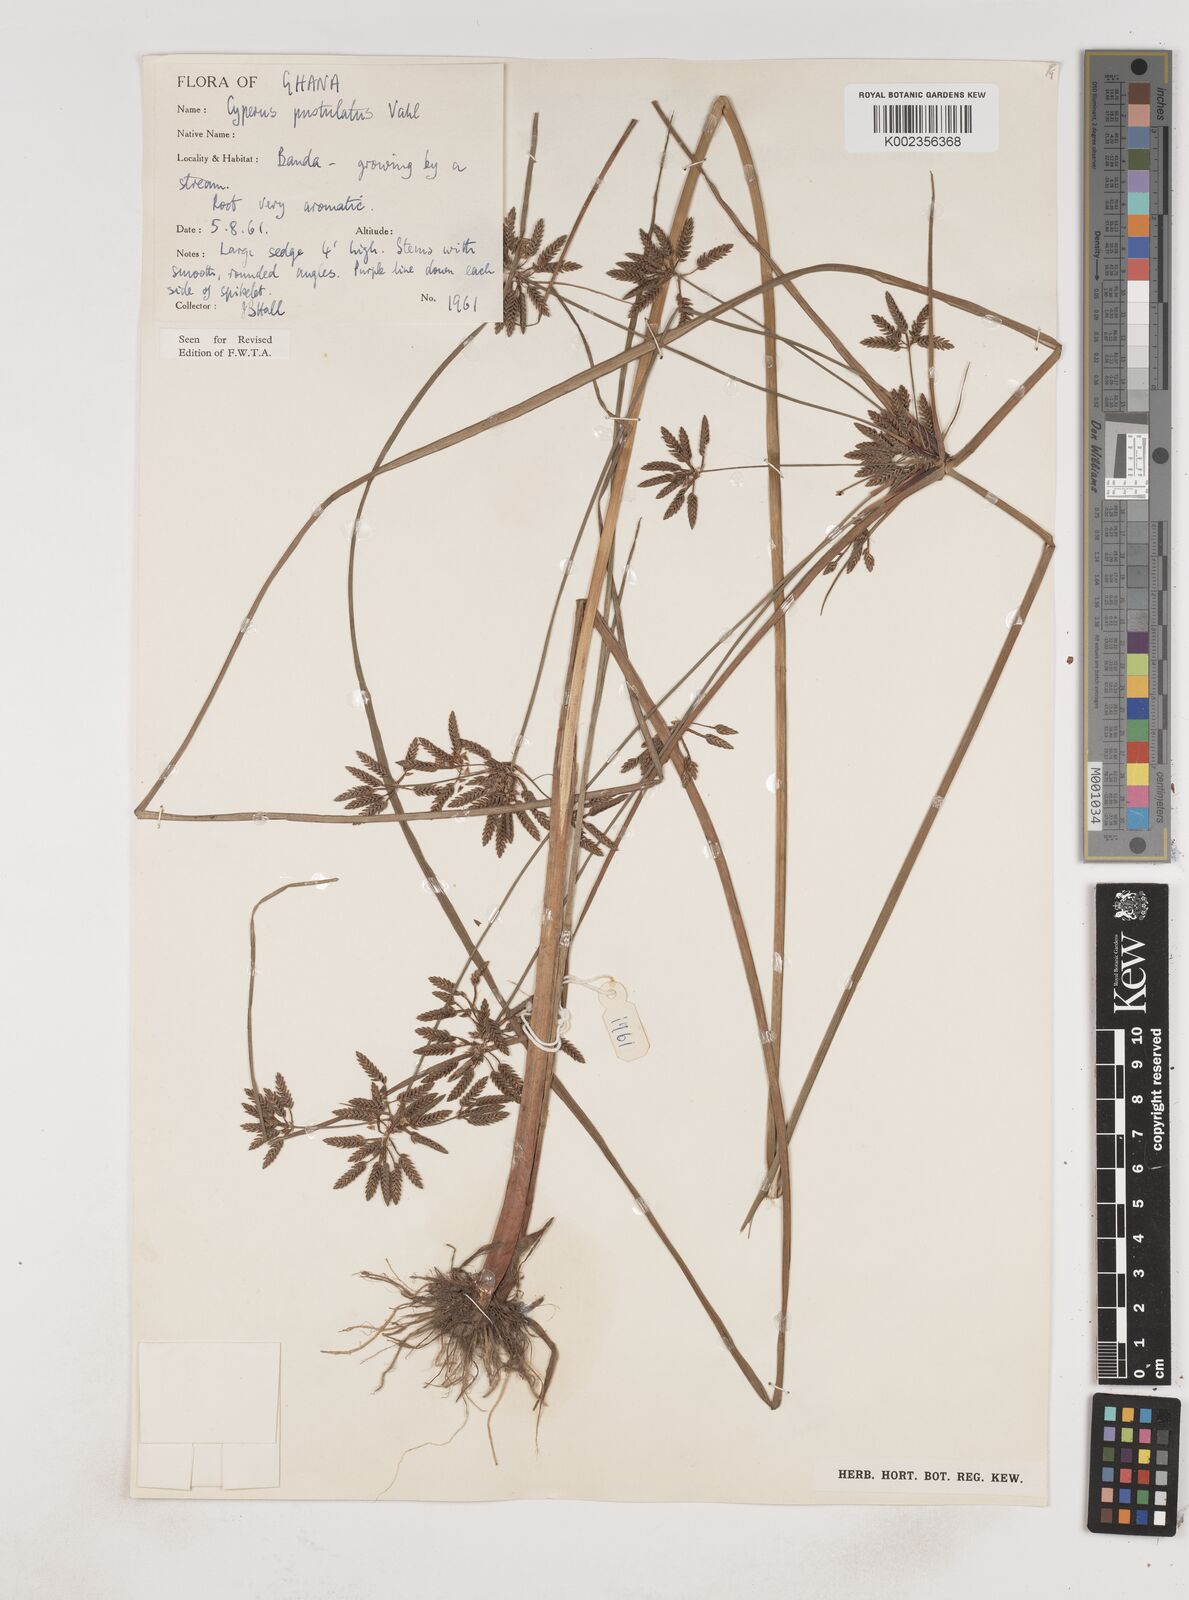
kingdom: Plantae
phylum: Tracheophyta
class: Liliopsida
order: Poales
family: Cyperaceae
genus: Cyperus
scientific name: Cyperus pustulatus
